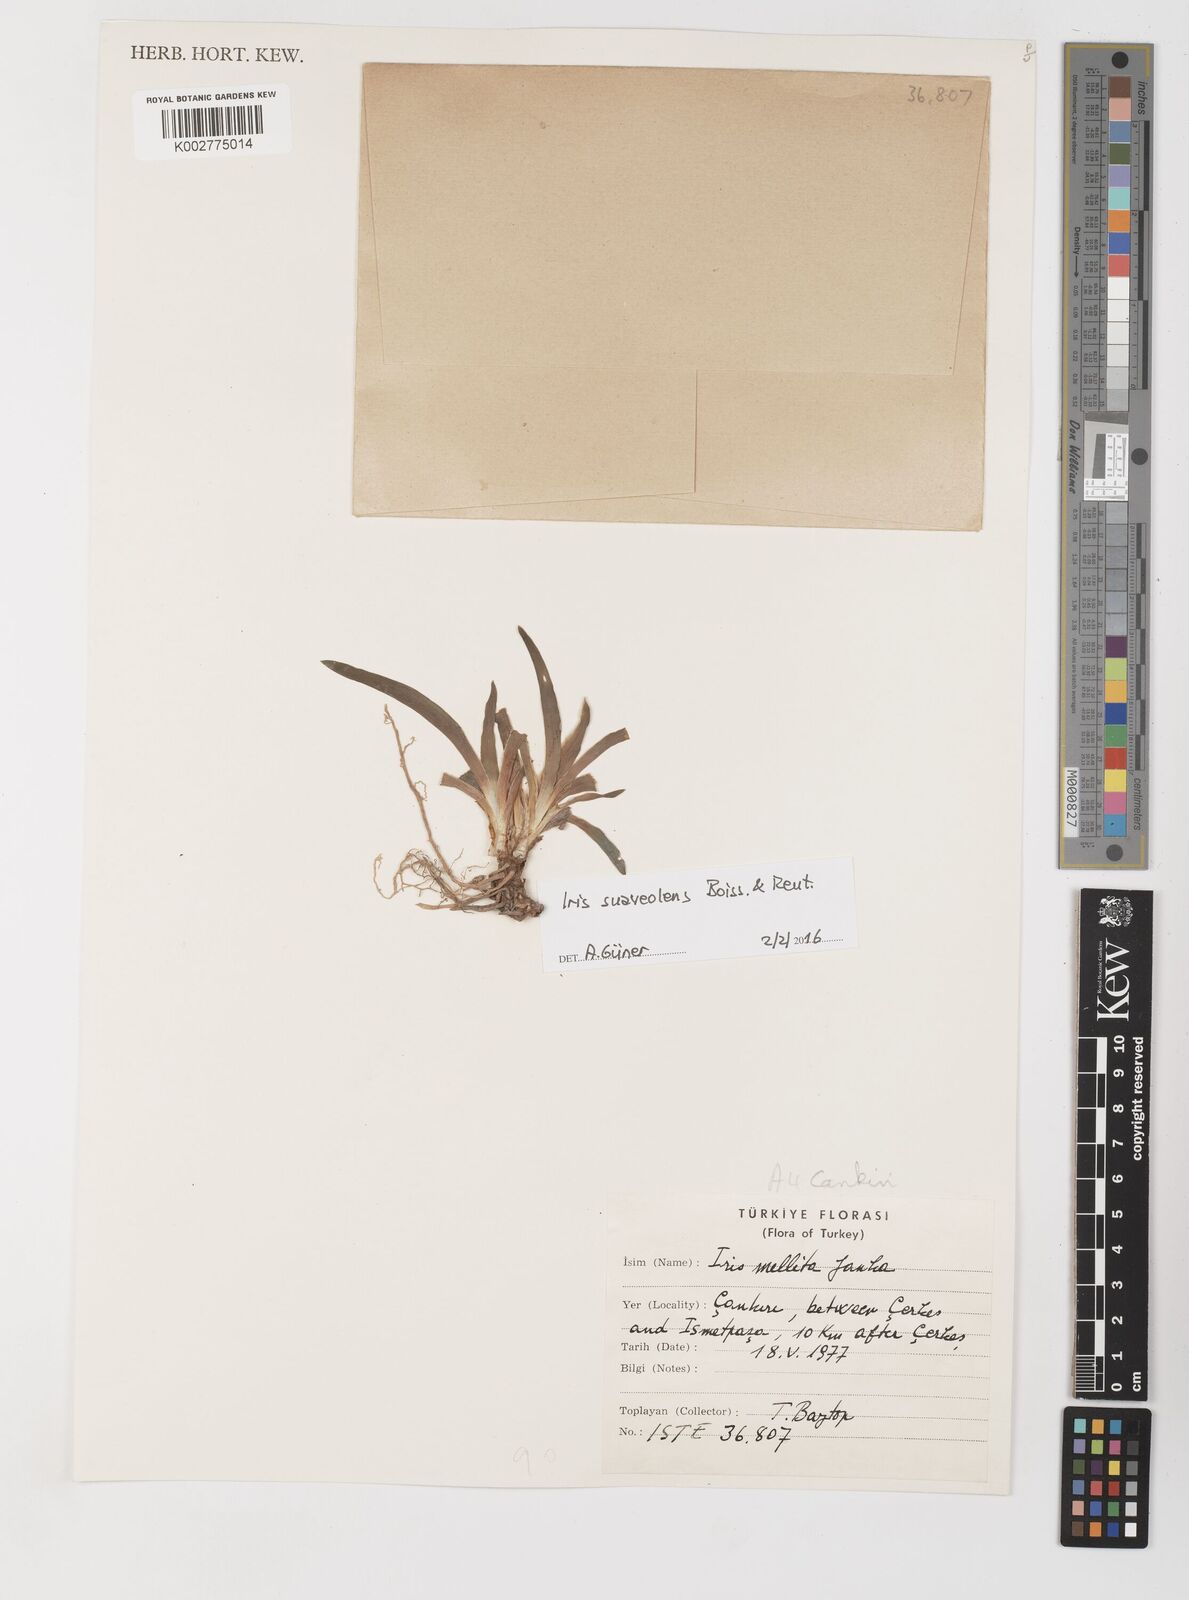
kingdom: Plantae
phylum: Tracheophyta
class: Liliopsida
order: Asparagales
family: Iridaceae
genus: Iris
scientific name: Iris suaveolens
